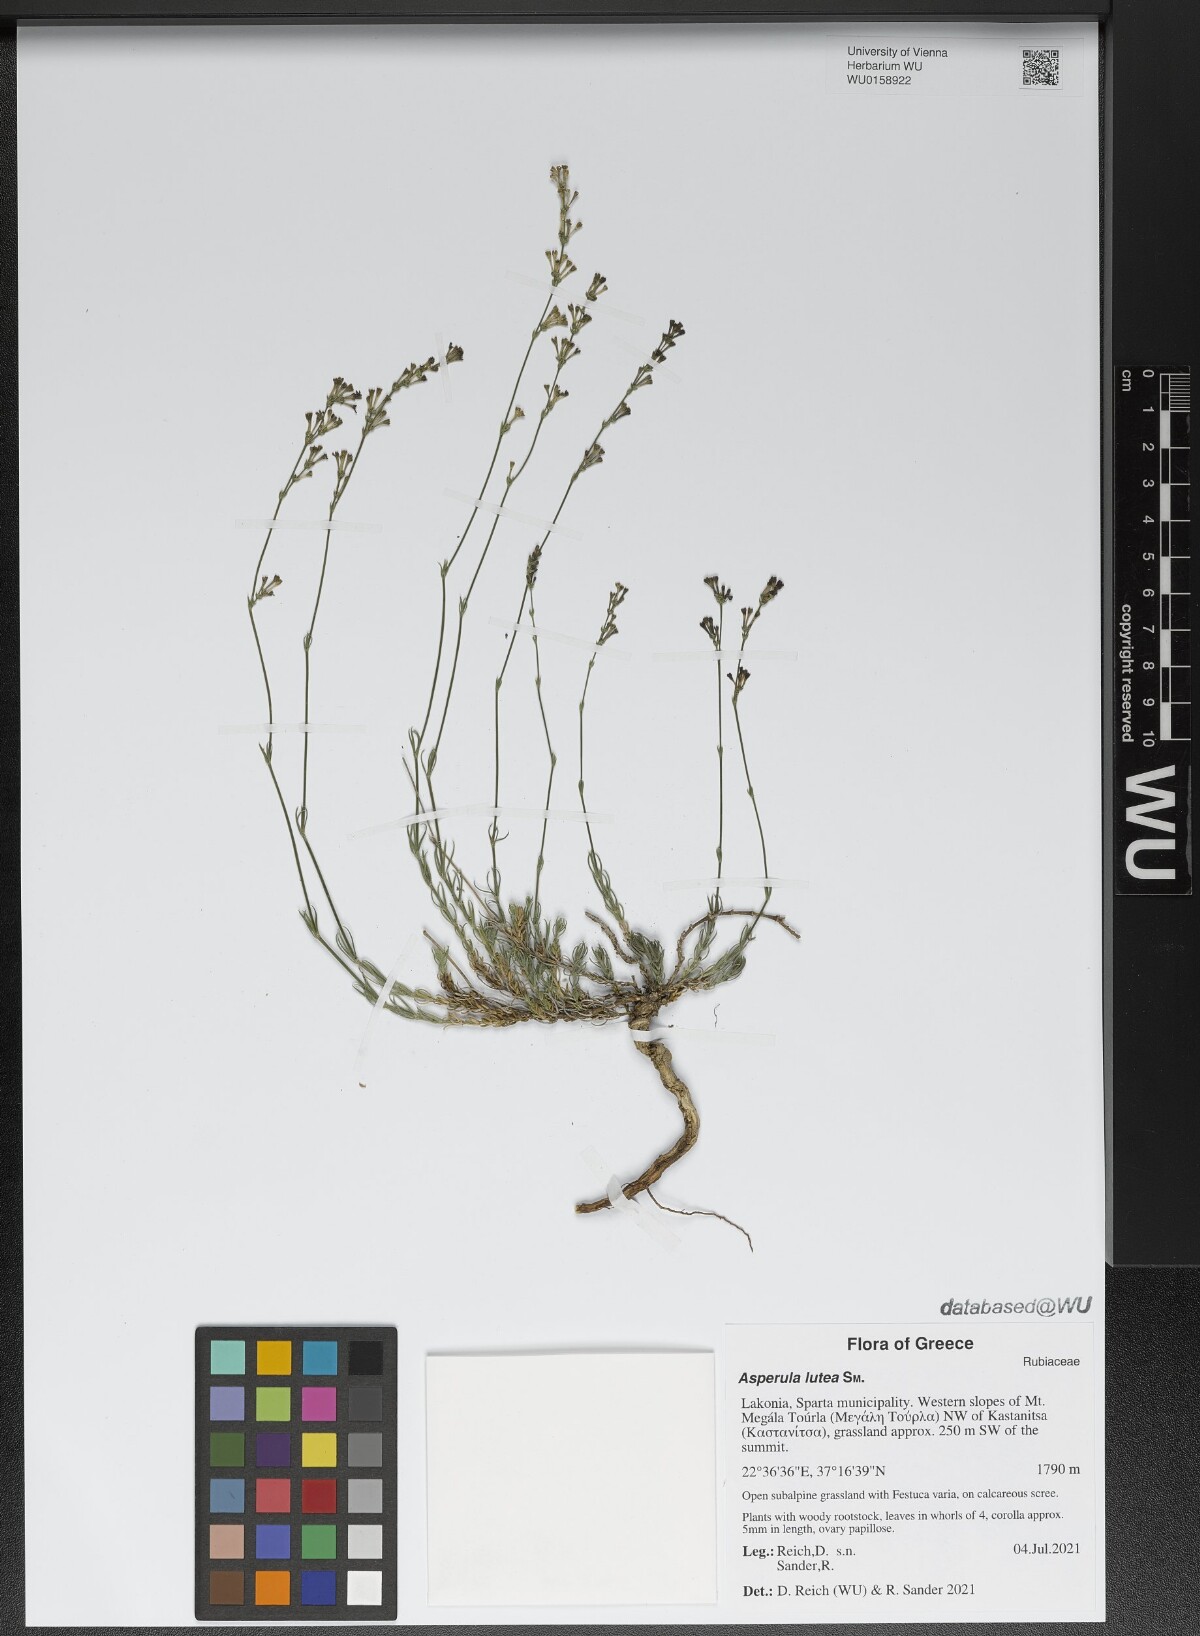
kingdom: Plantae
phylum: Tracheophyta
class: Magnoliopsida
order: Gentianales
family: Rubiaceae
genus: Cynanchica
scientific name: Cynanchica lutea
